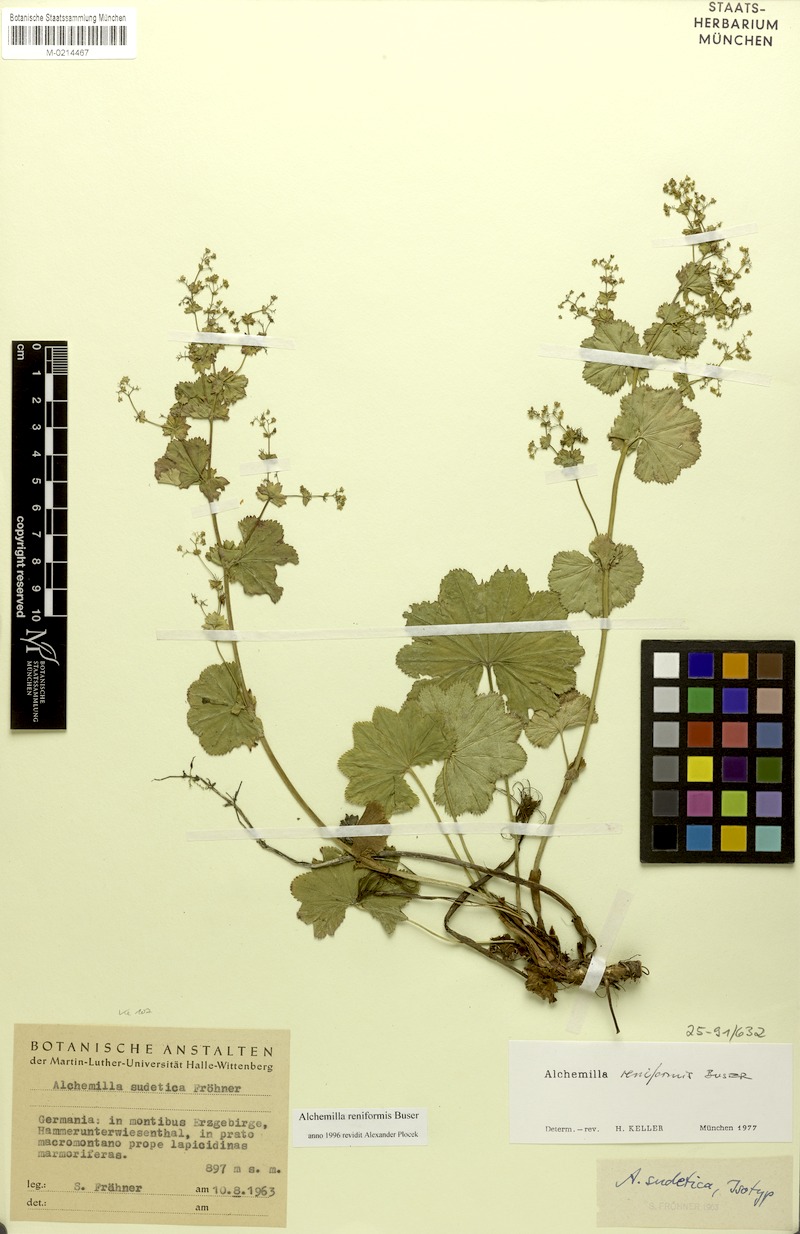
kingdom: Plantae
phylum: Tracheophyta
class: Magnoliopsida
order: Rosales
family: Rosaceae
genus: Alchemilla
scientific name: Alchemilla reniformis
